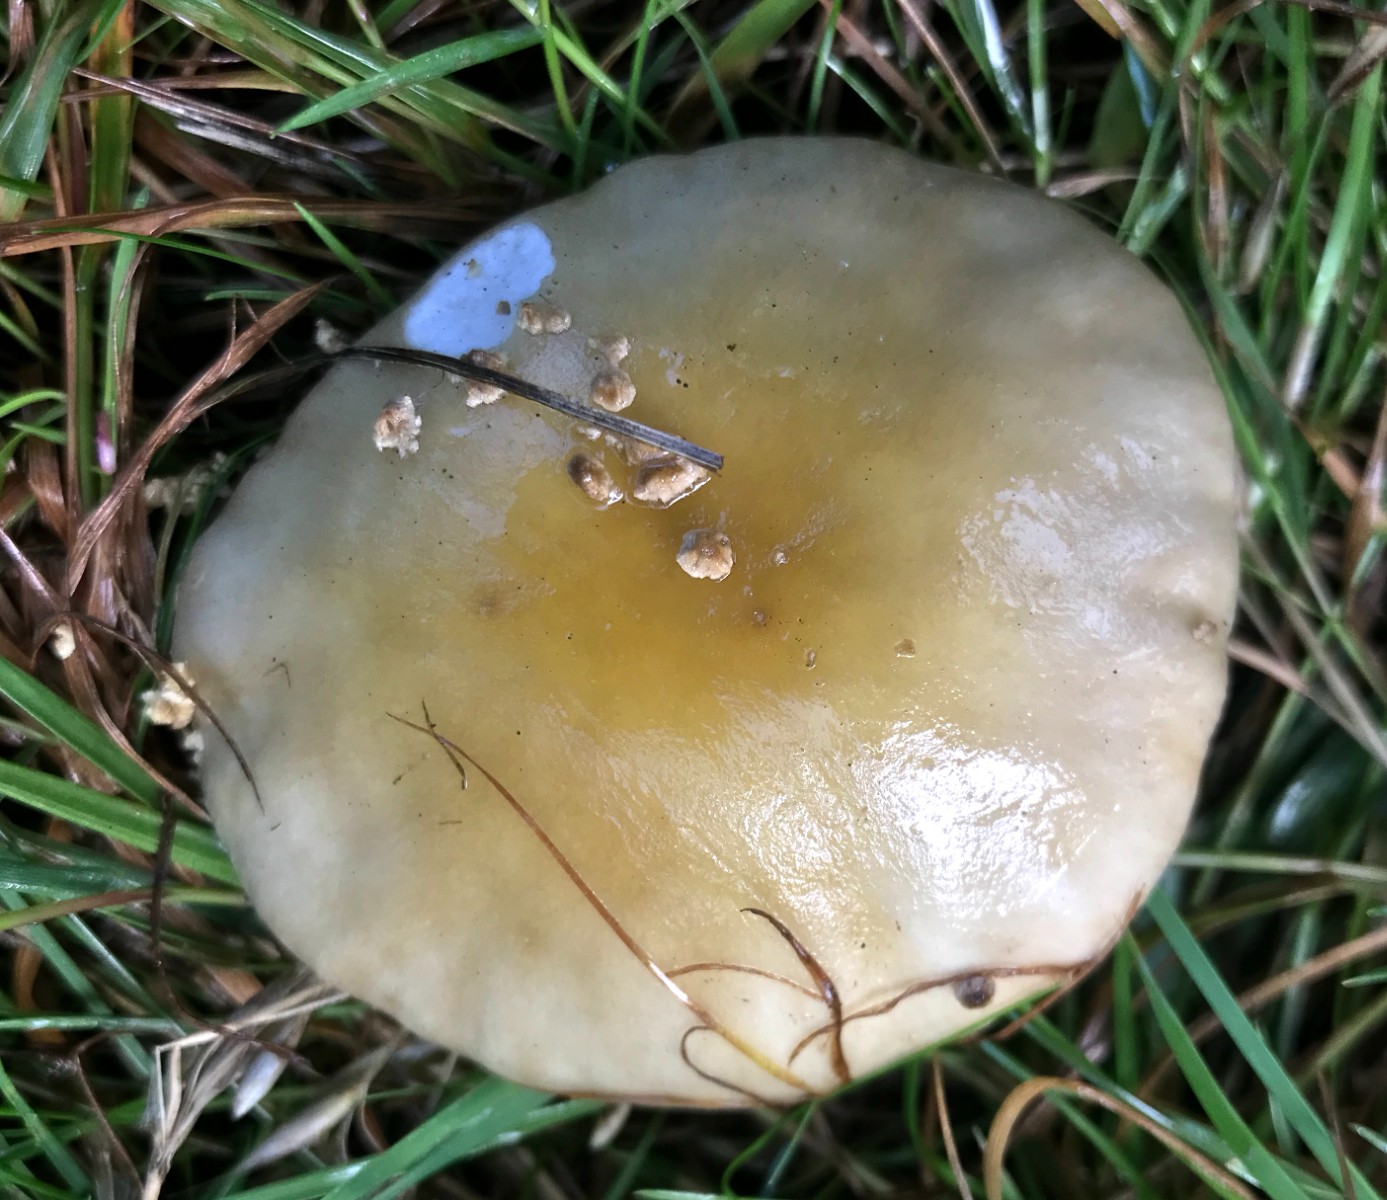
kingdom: Fungi
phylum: Basidiomycota
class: Agaricomycetes
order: Agaricales
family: Amanitaceae
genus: Amanita
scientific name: Amanita phalloides
